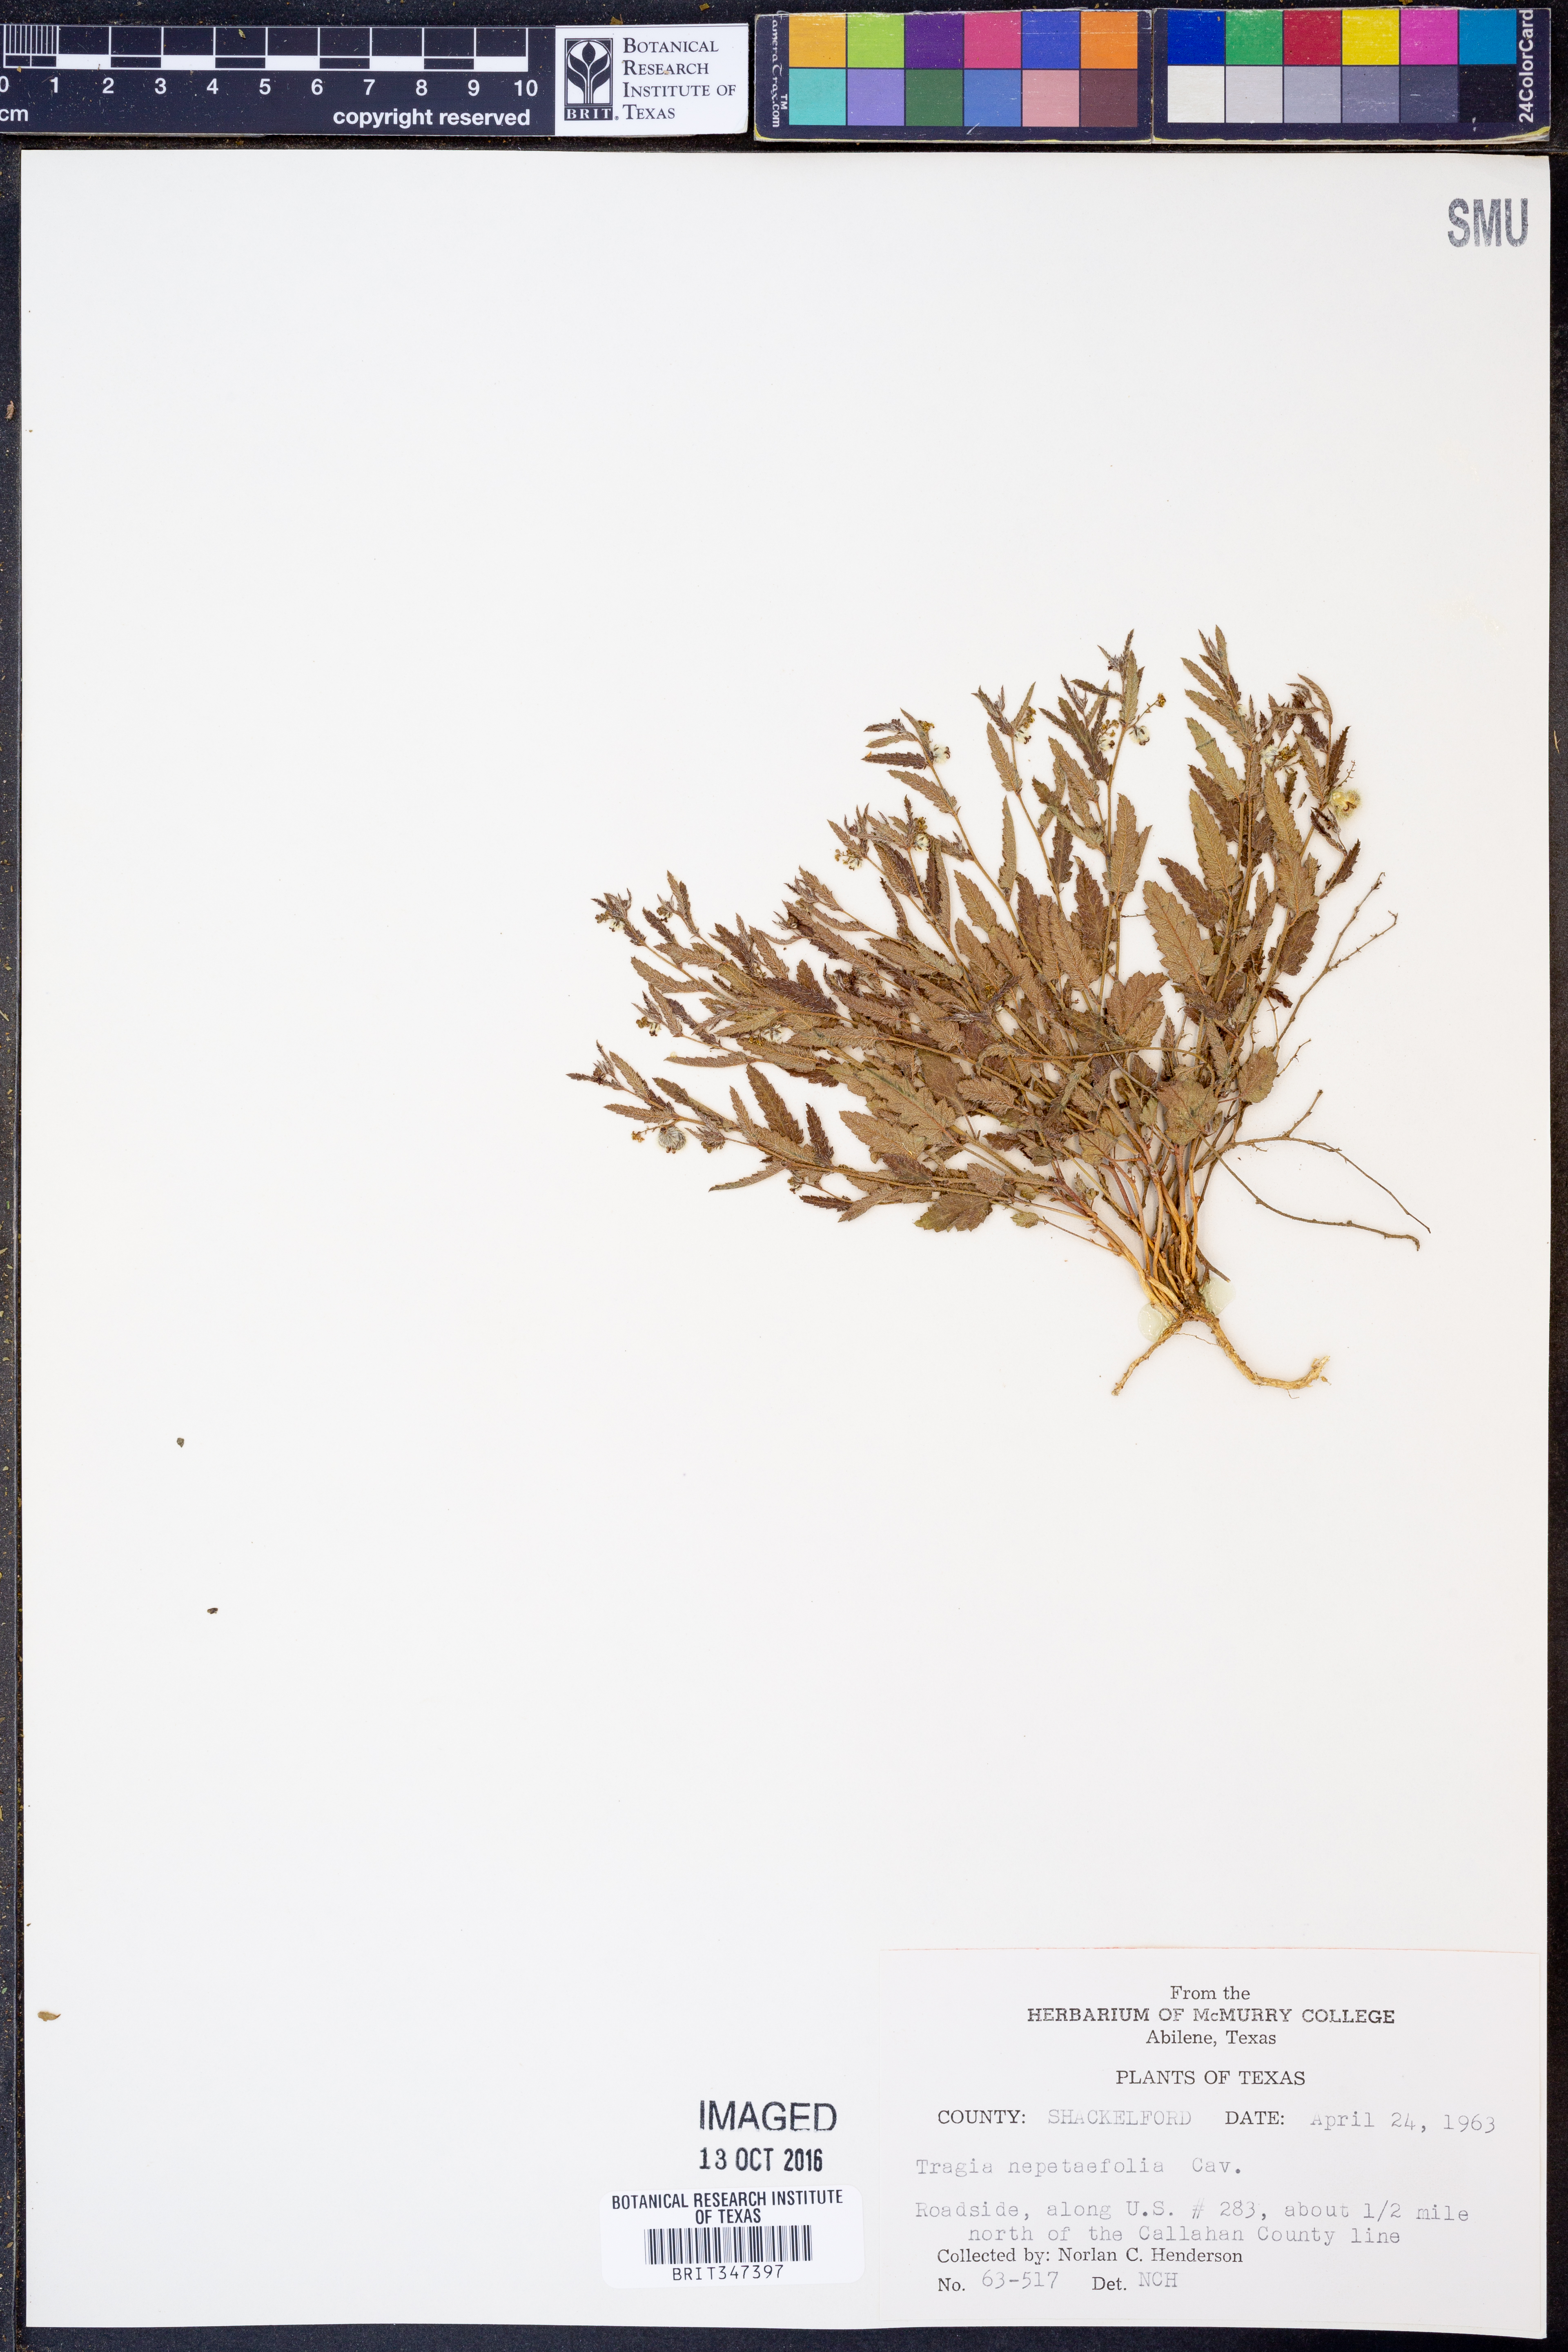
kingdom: Plantae
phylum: Tracheophyta
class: Magnoliopsida
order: Malpighiales
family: Euphorbiaceae
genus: Tragia
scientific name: Tragia bahiensis
